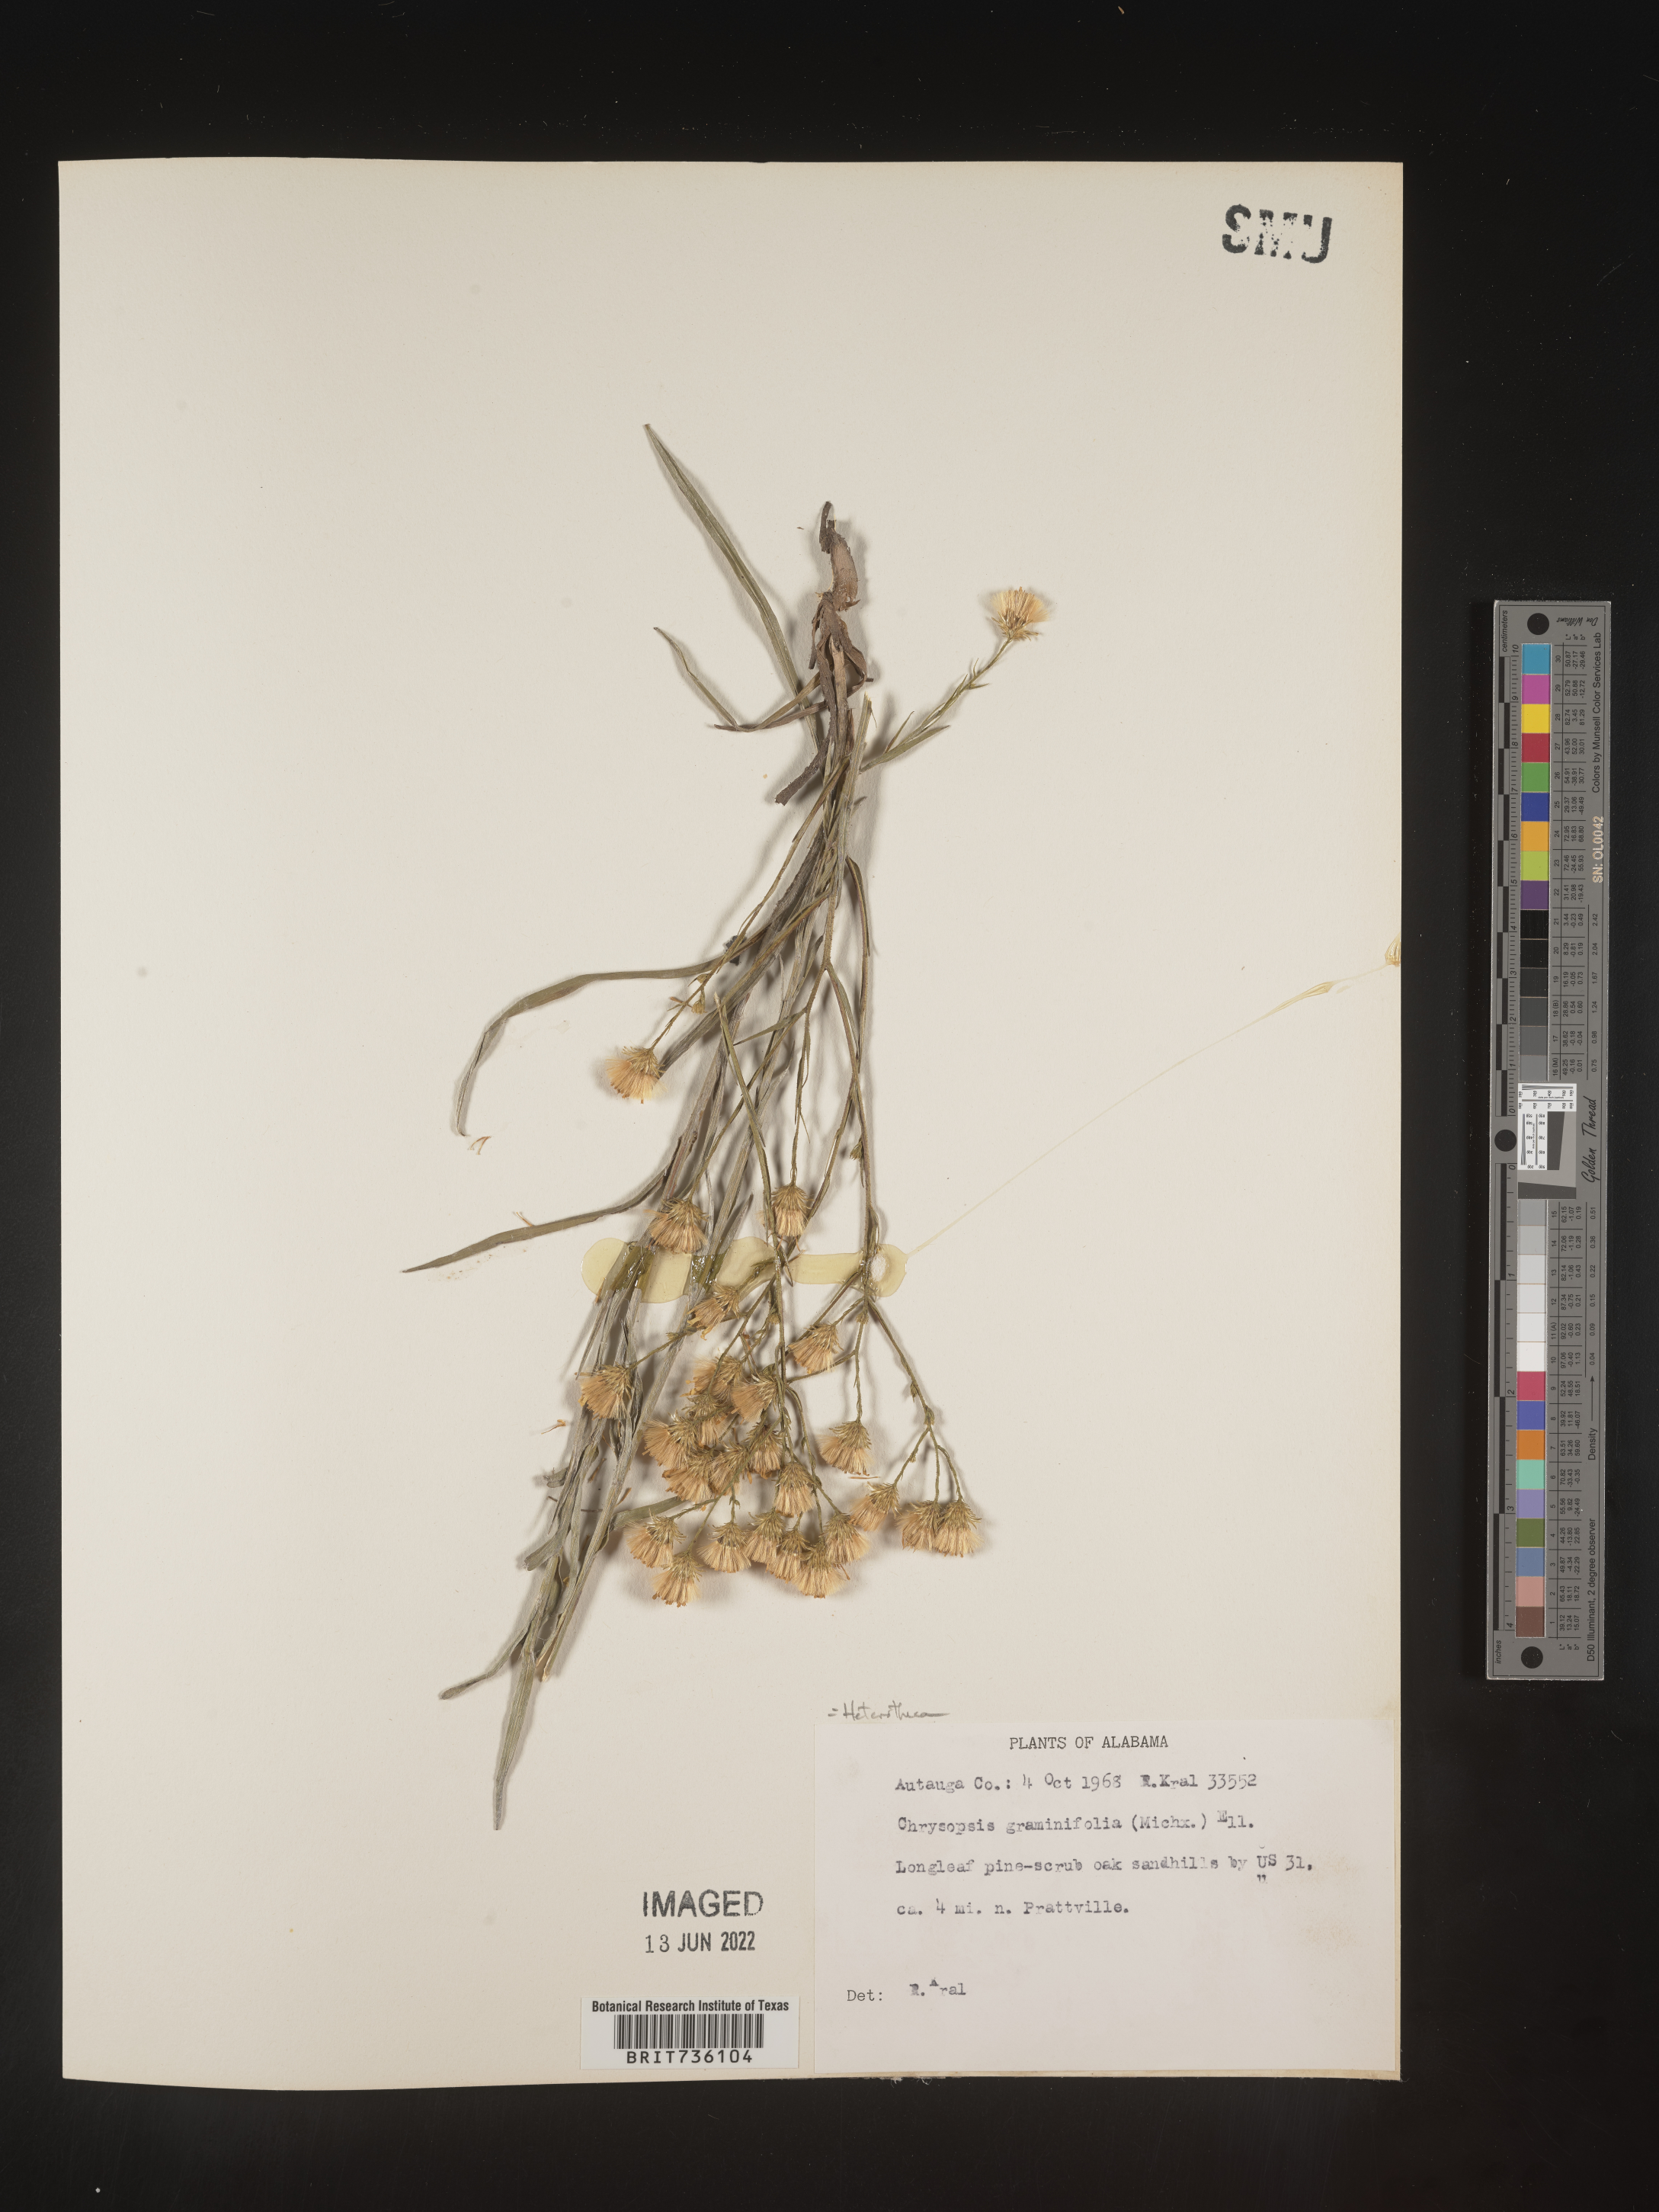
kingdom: Plantae
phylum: Tracheophyta
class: Magnoliopsida
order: Asterales
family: Asteraceae
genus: Pityopsis
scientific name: Pityopsis aspera
